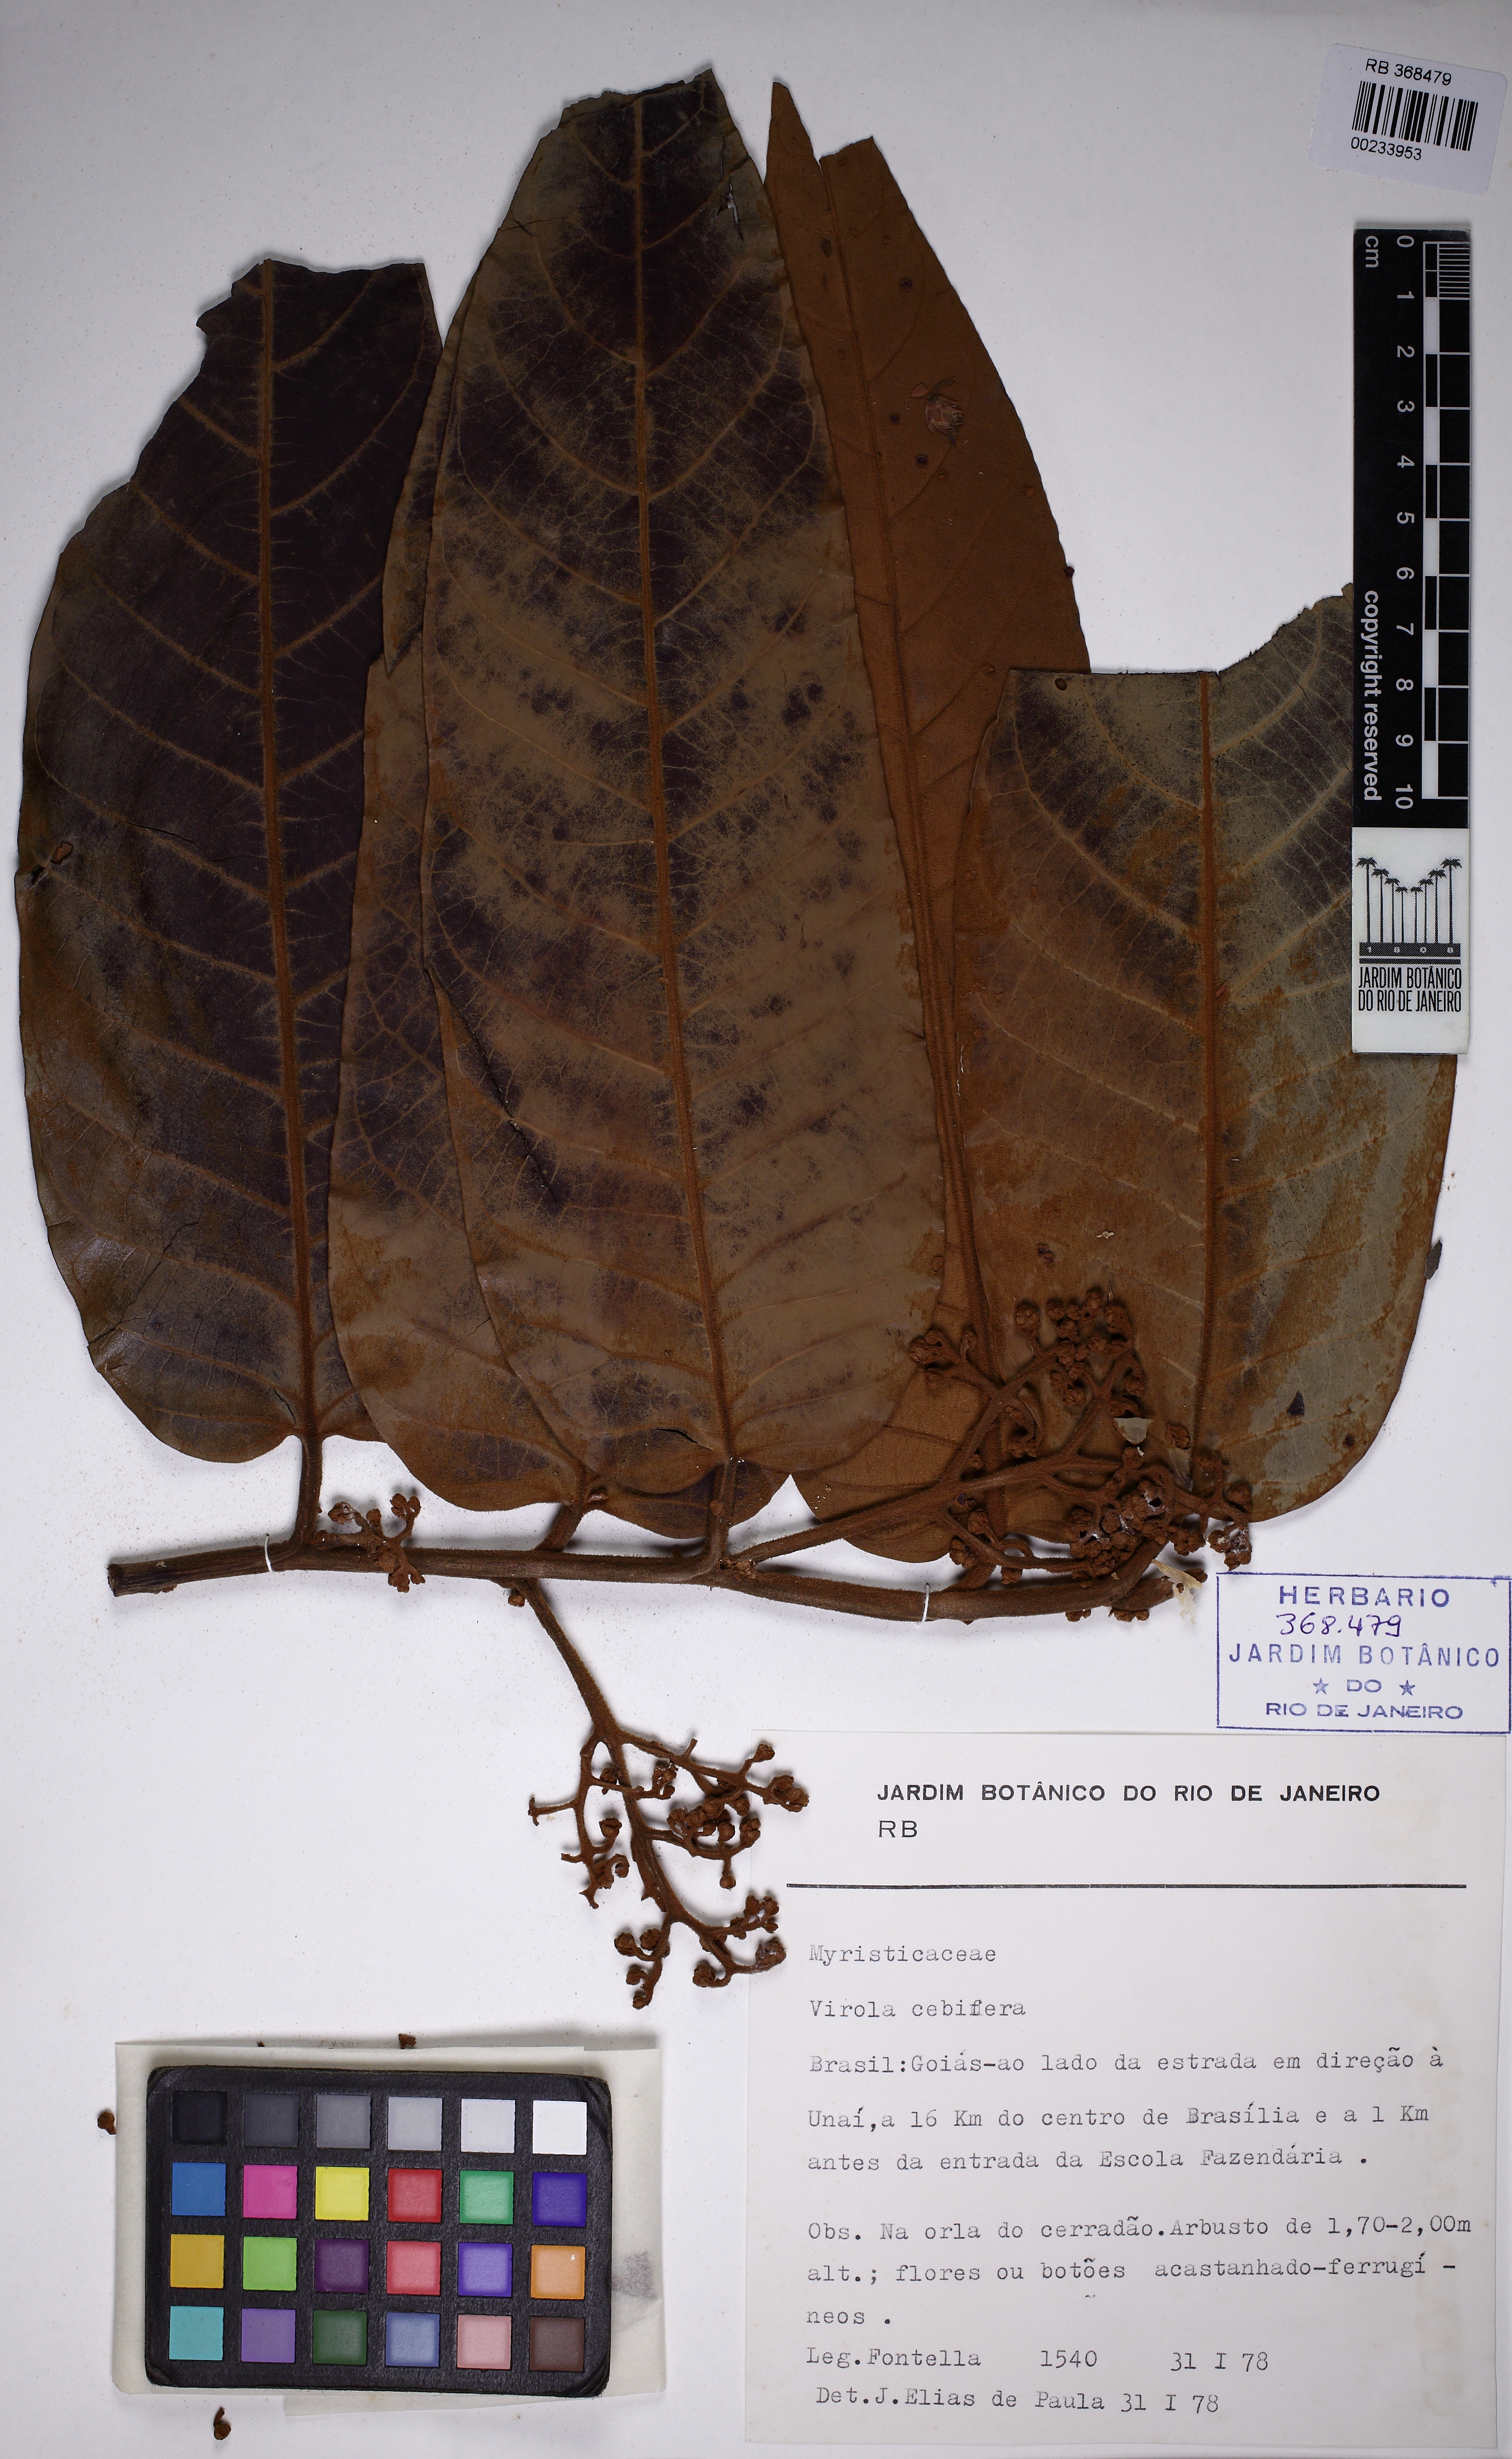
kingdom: Plantae
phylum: Tracheophyta
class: Magnoliopsida
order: Magnoliales
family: Myristicaceae
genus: Virola
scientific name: Virola sebifera
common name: Red ucuuba
